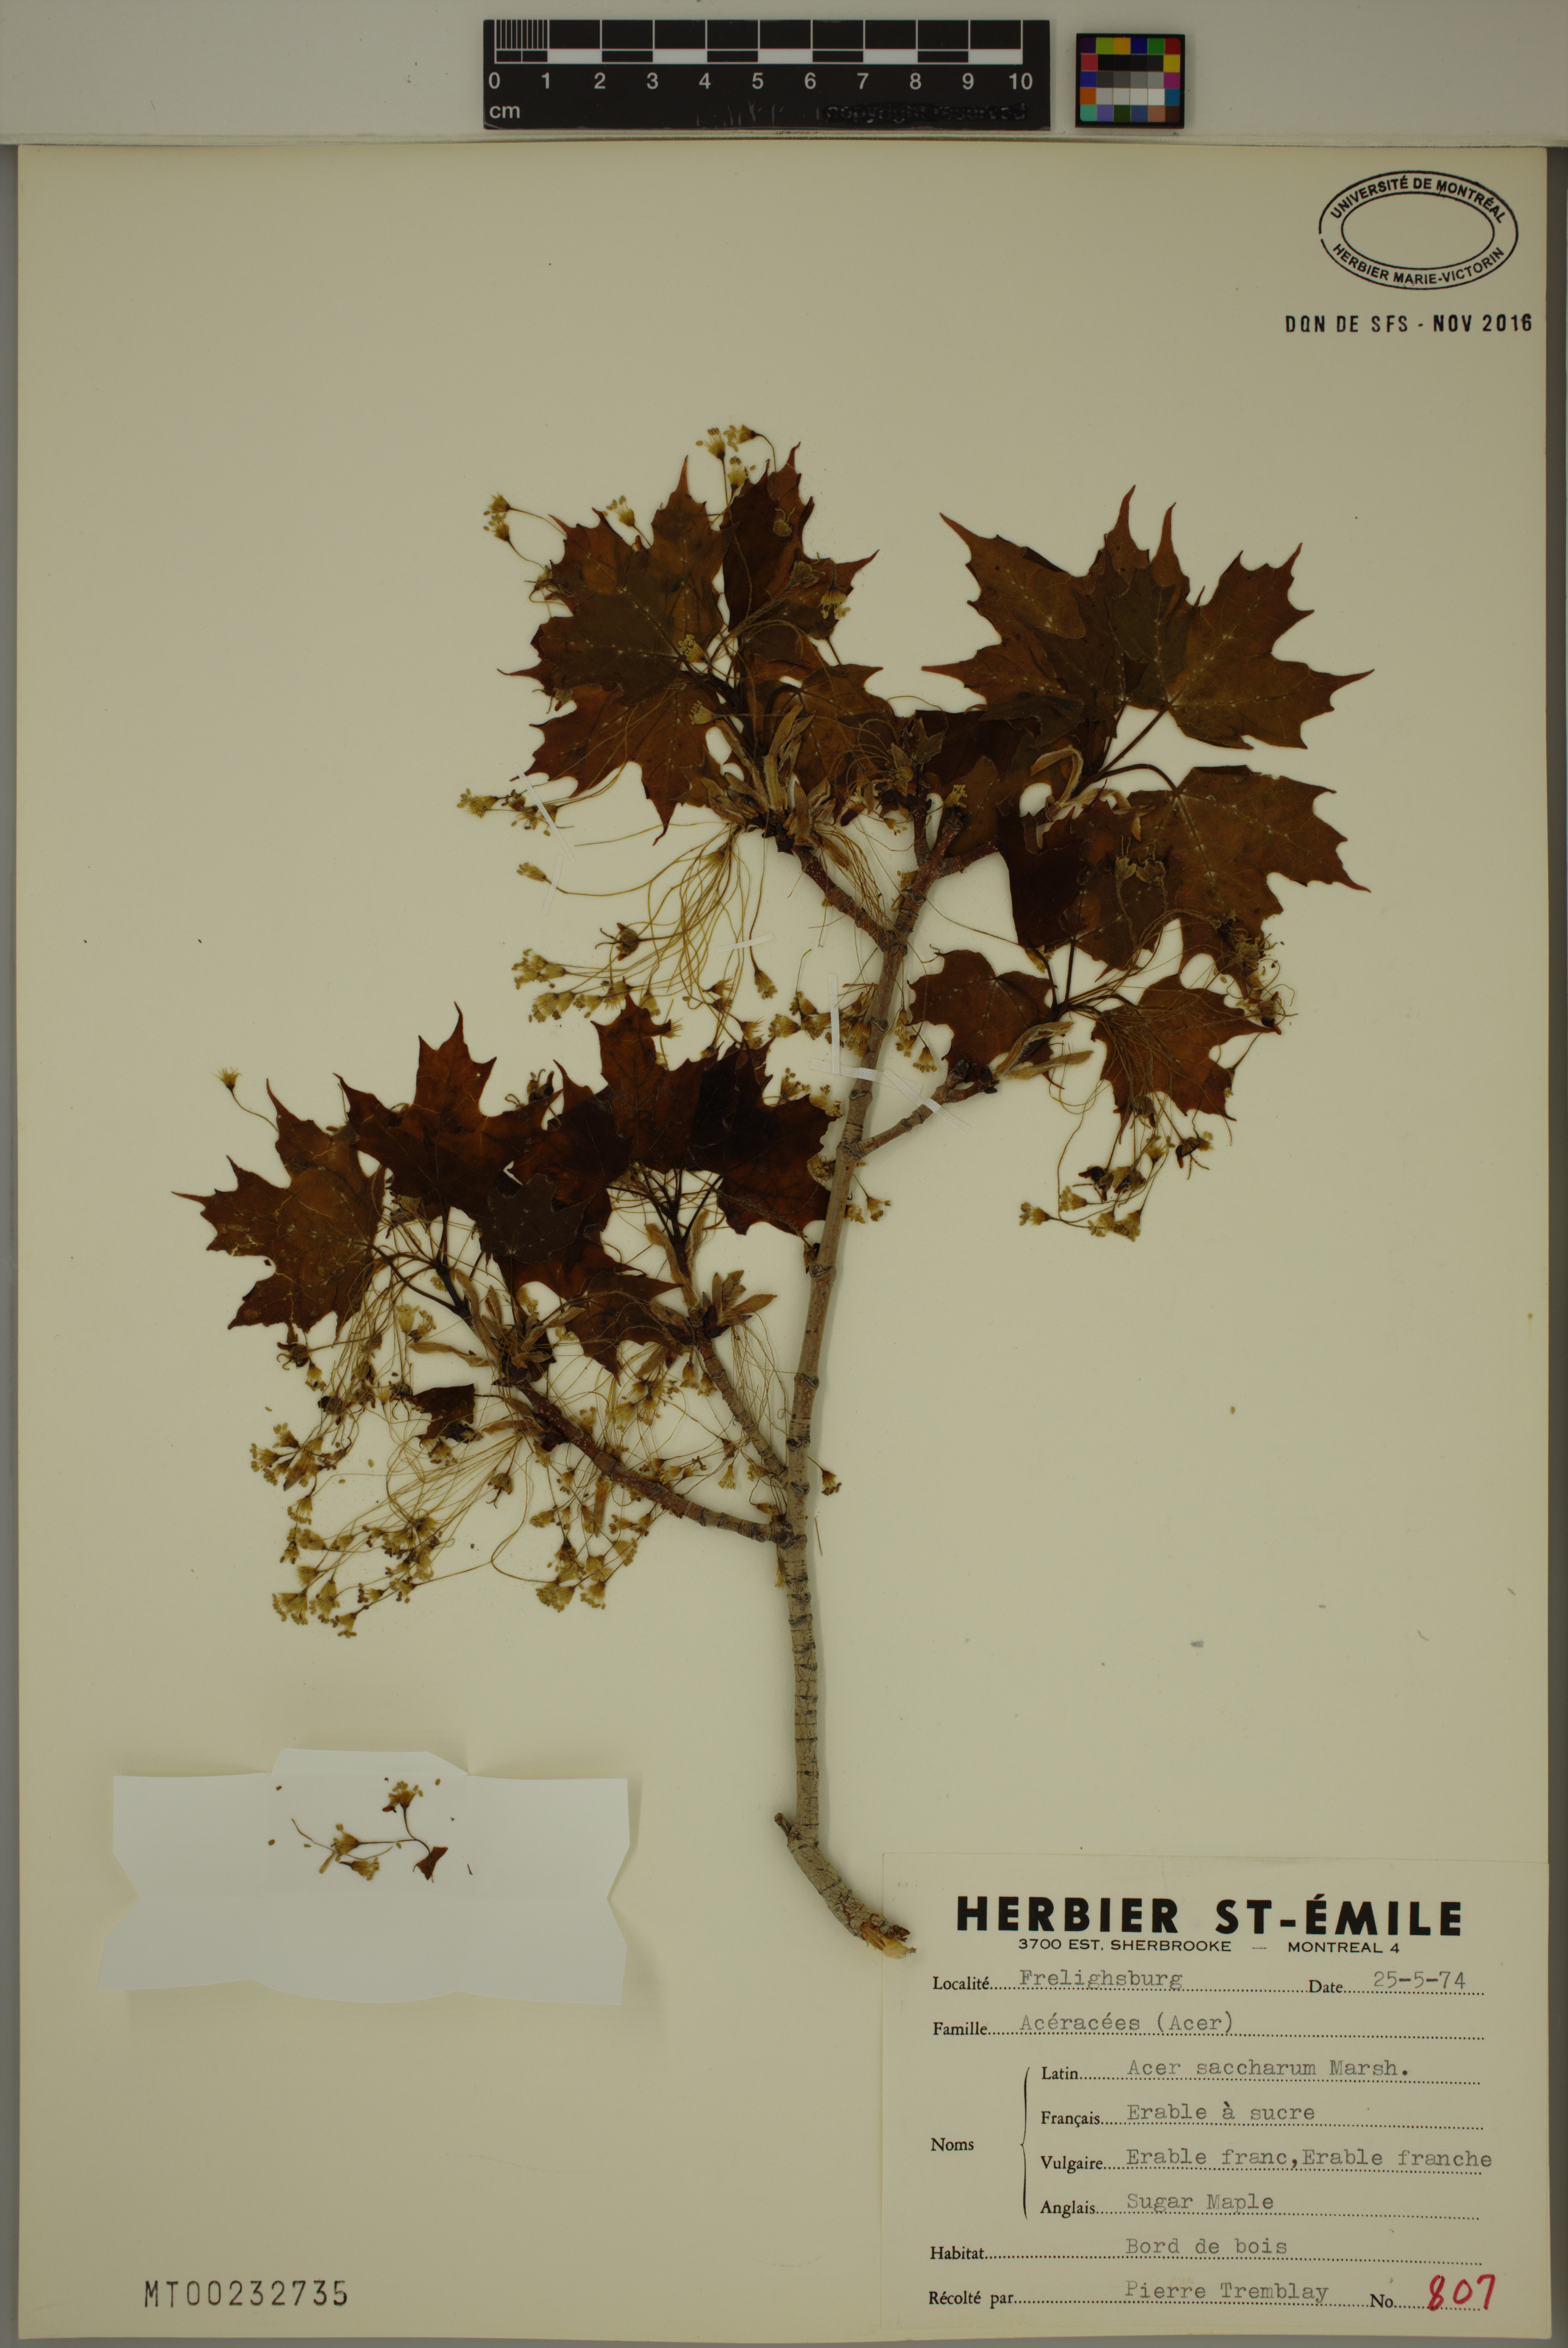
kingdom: Plantae
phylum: Tracheophyta
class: Magnoliopsida
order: Sapindales
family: Sapindaceae
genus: Acer
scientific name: Acer saccharum
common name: Sugar maple
